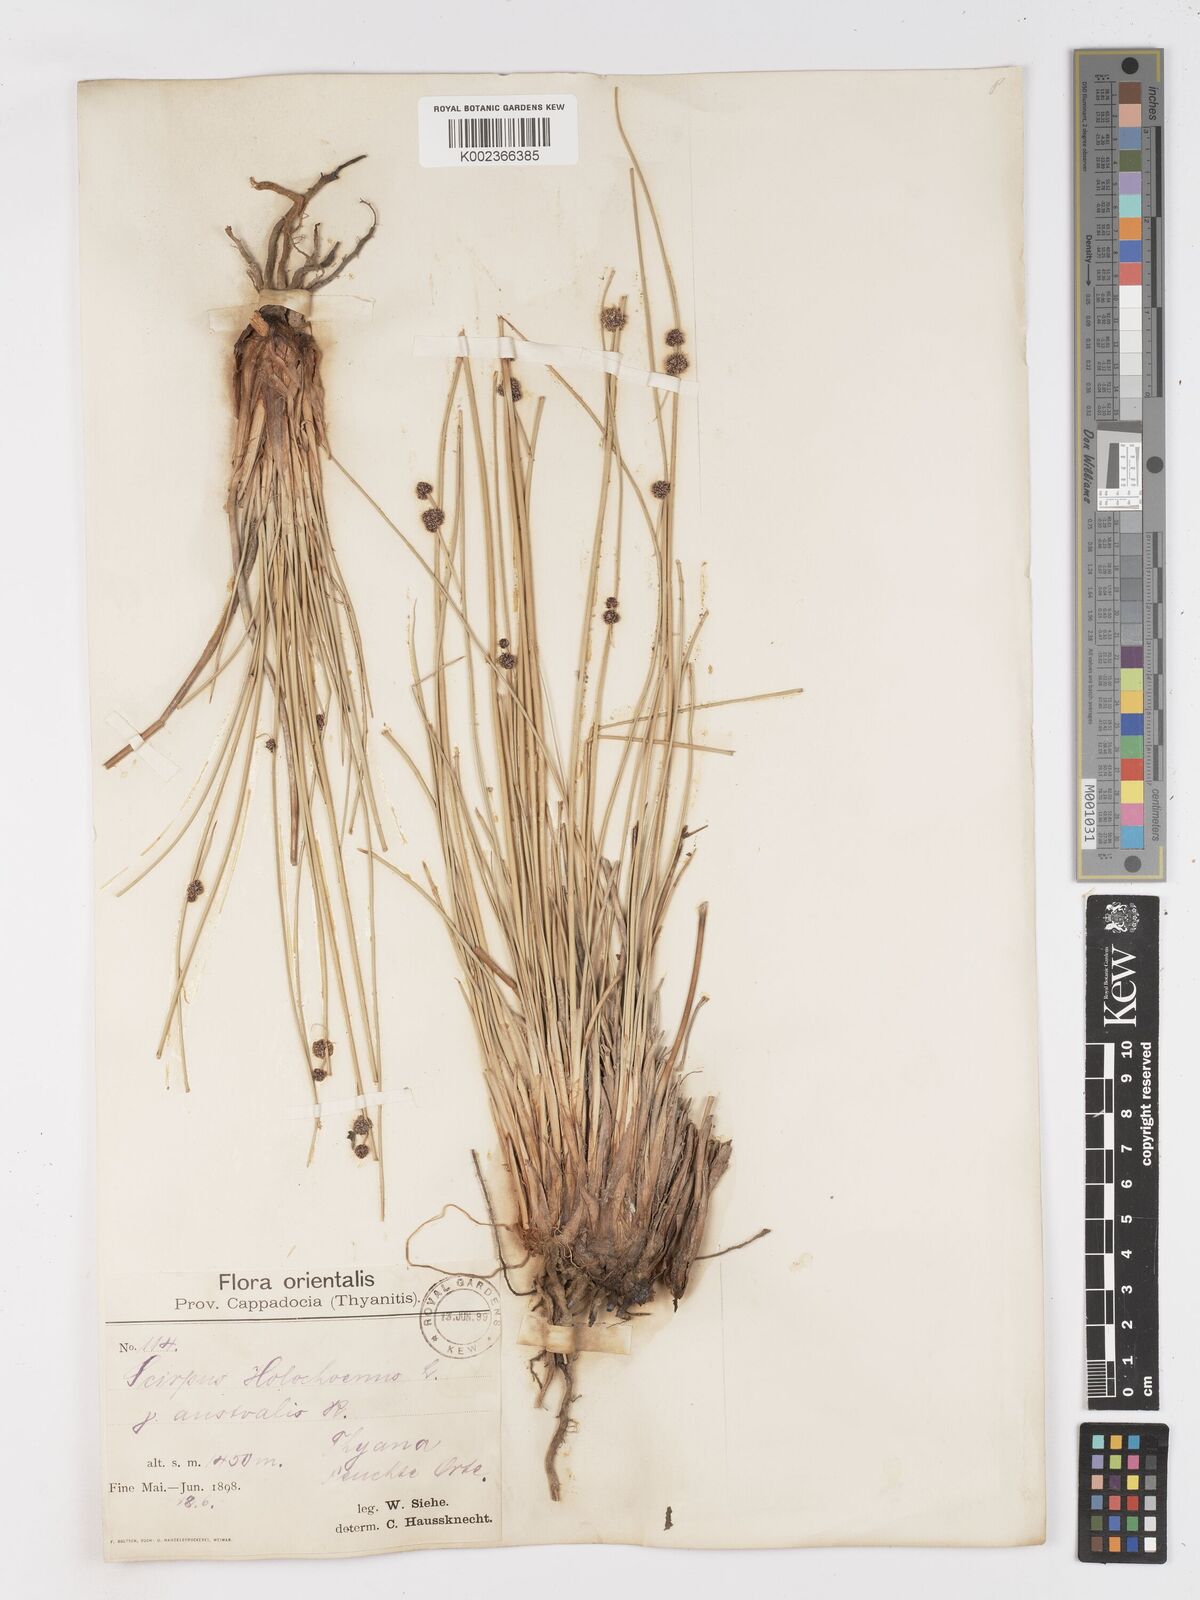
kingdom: Plantae
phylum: Tracheophyta
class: Liliopsida
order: Poales
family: Cyperaceae
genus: Scirpoides
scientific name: Scirpoides holoschoenus
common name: Round-headed club-rush
